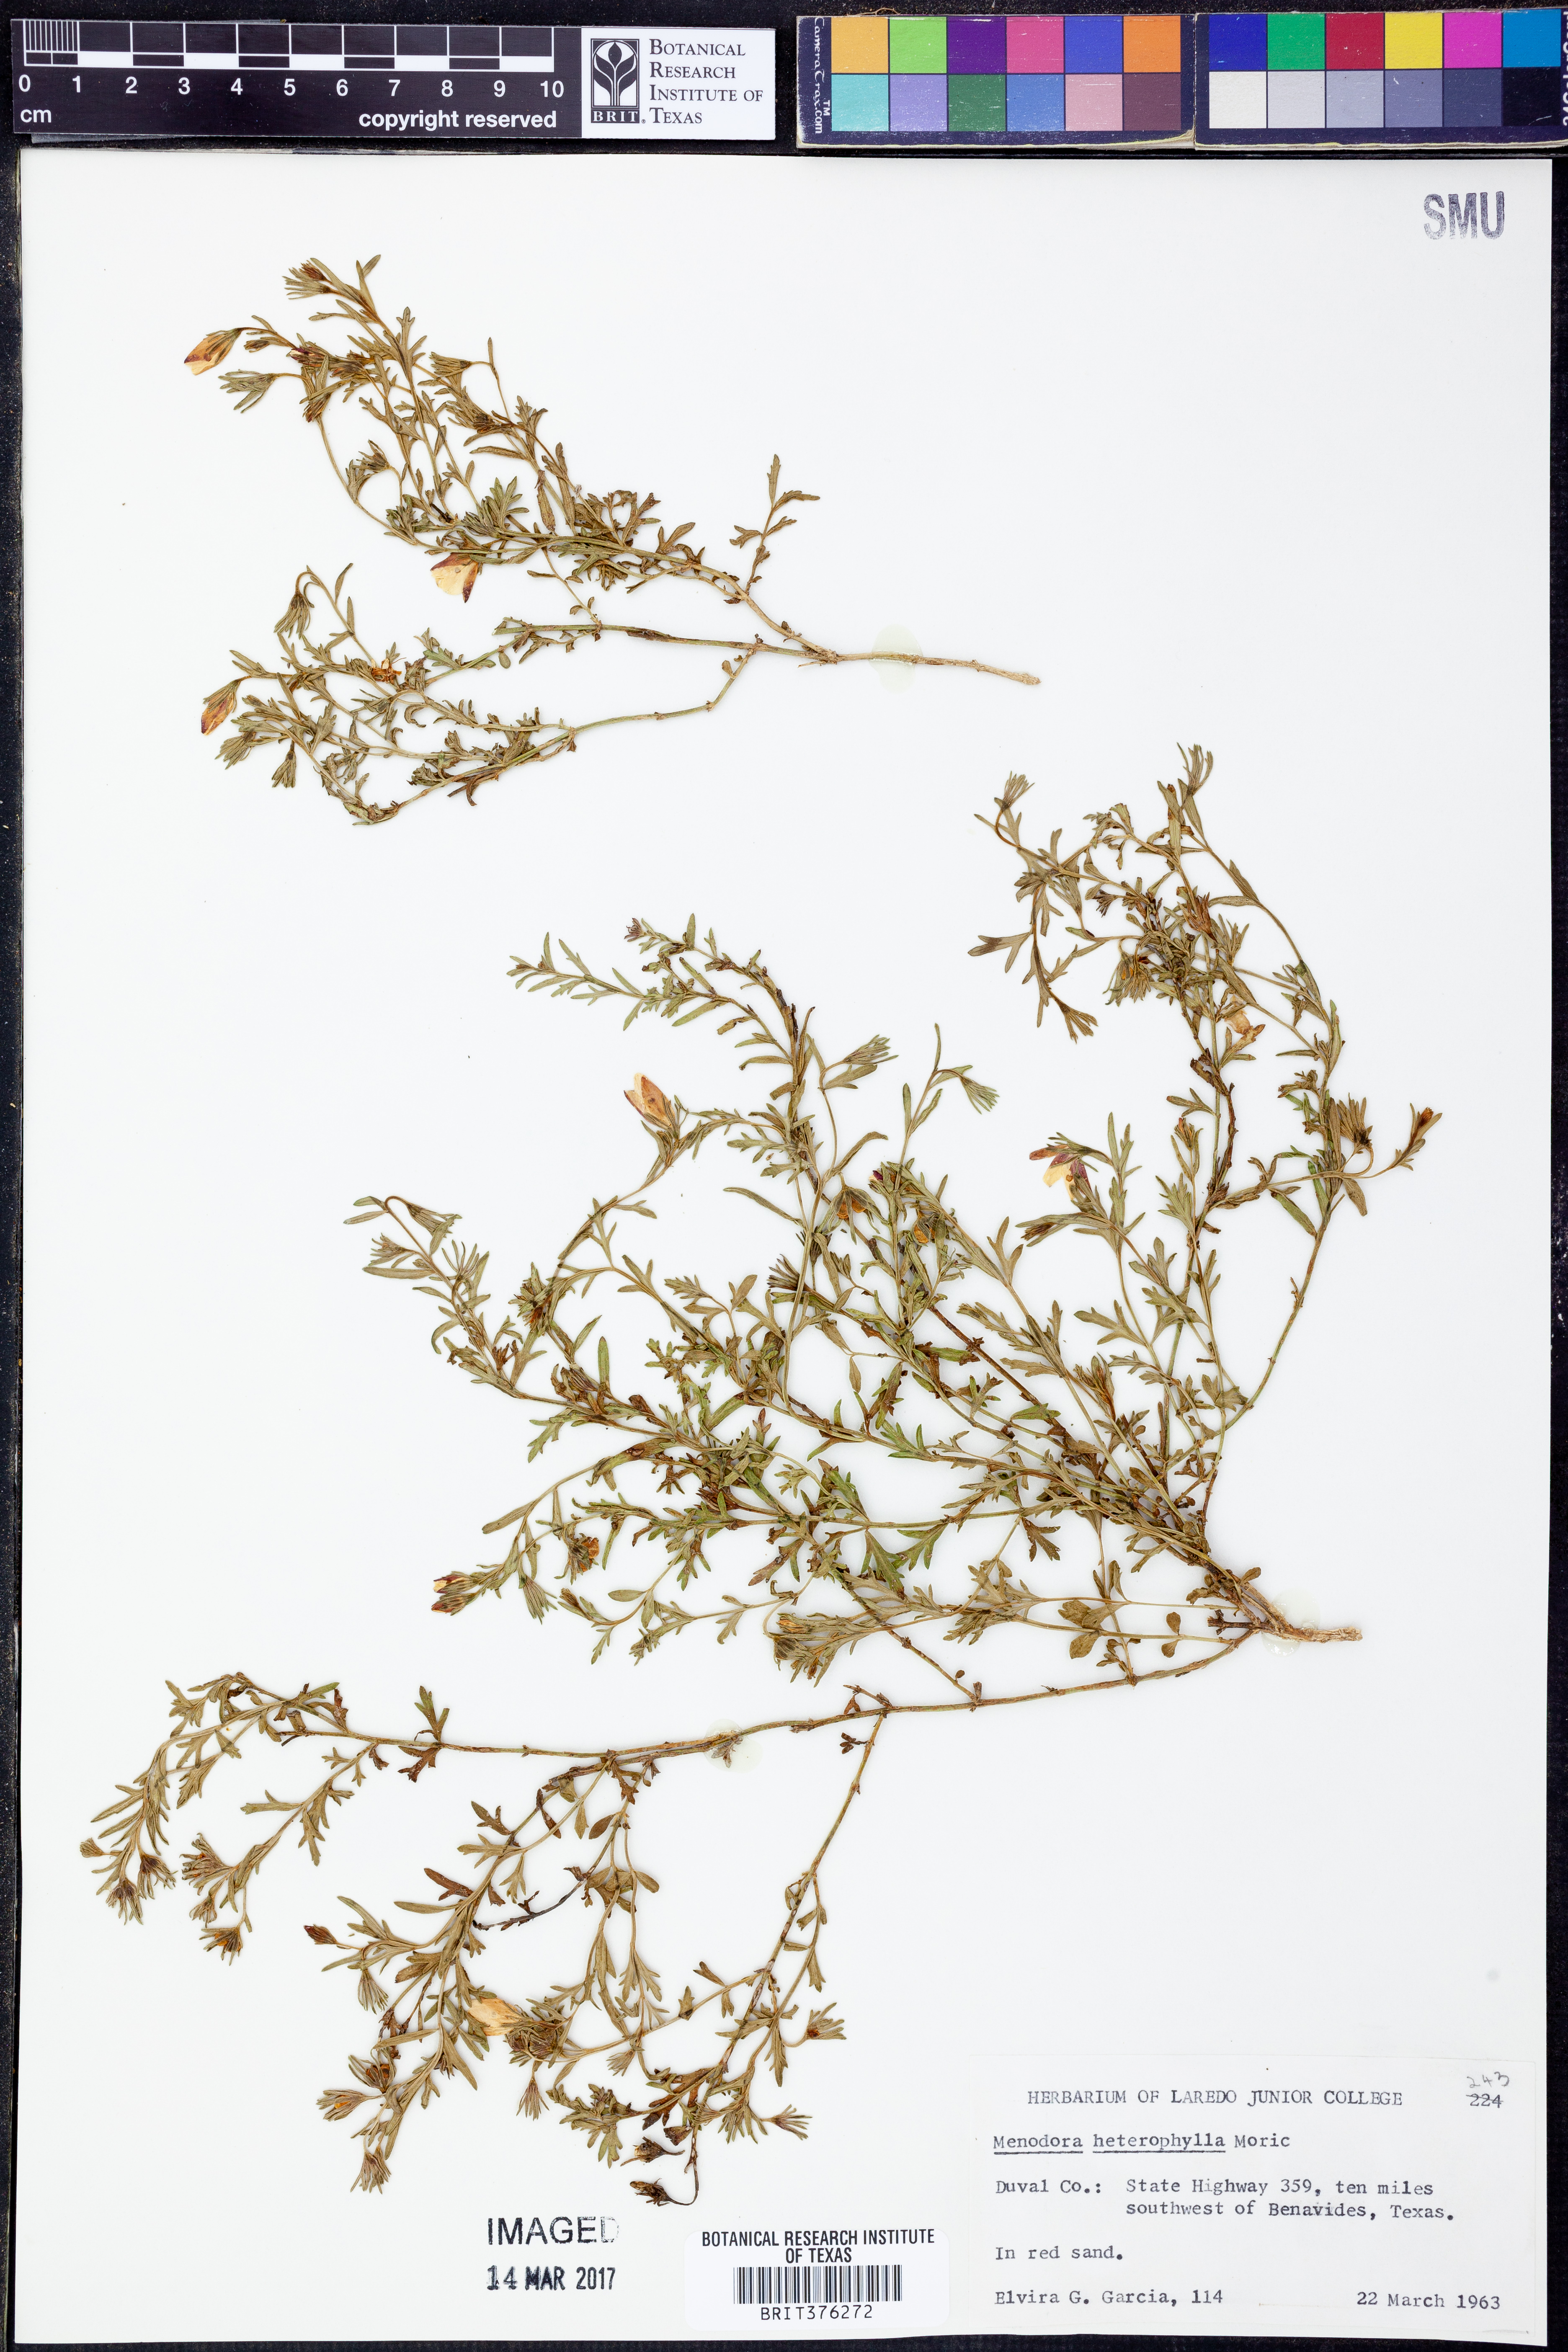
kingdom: Plantae
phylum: Tracheophyta
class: Magnoliopsida
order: Lamiales
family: Oleaceae
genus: Menodora
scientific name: Menodora heterophylla
